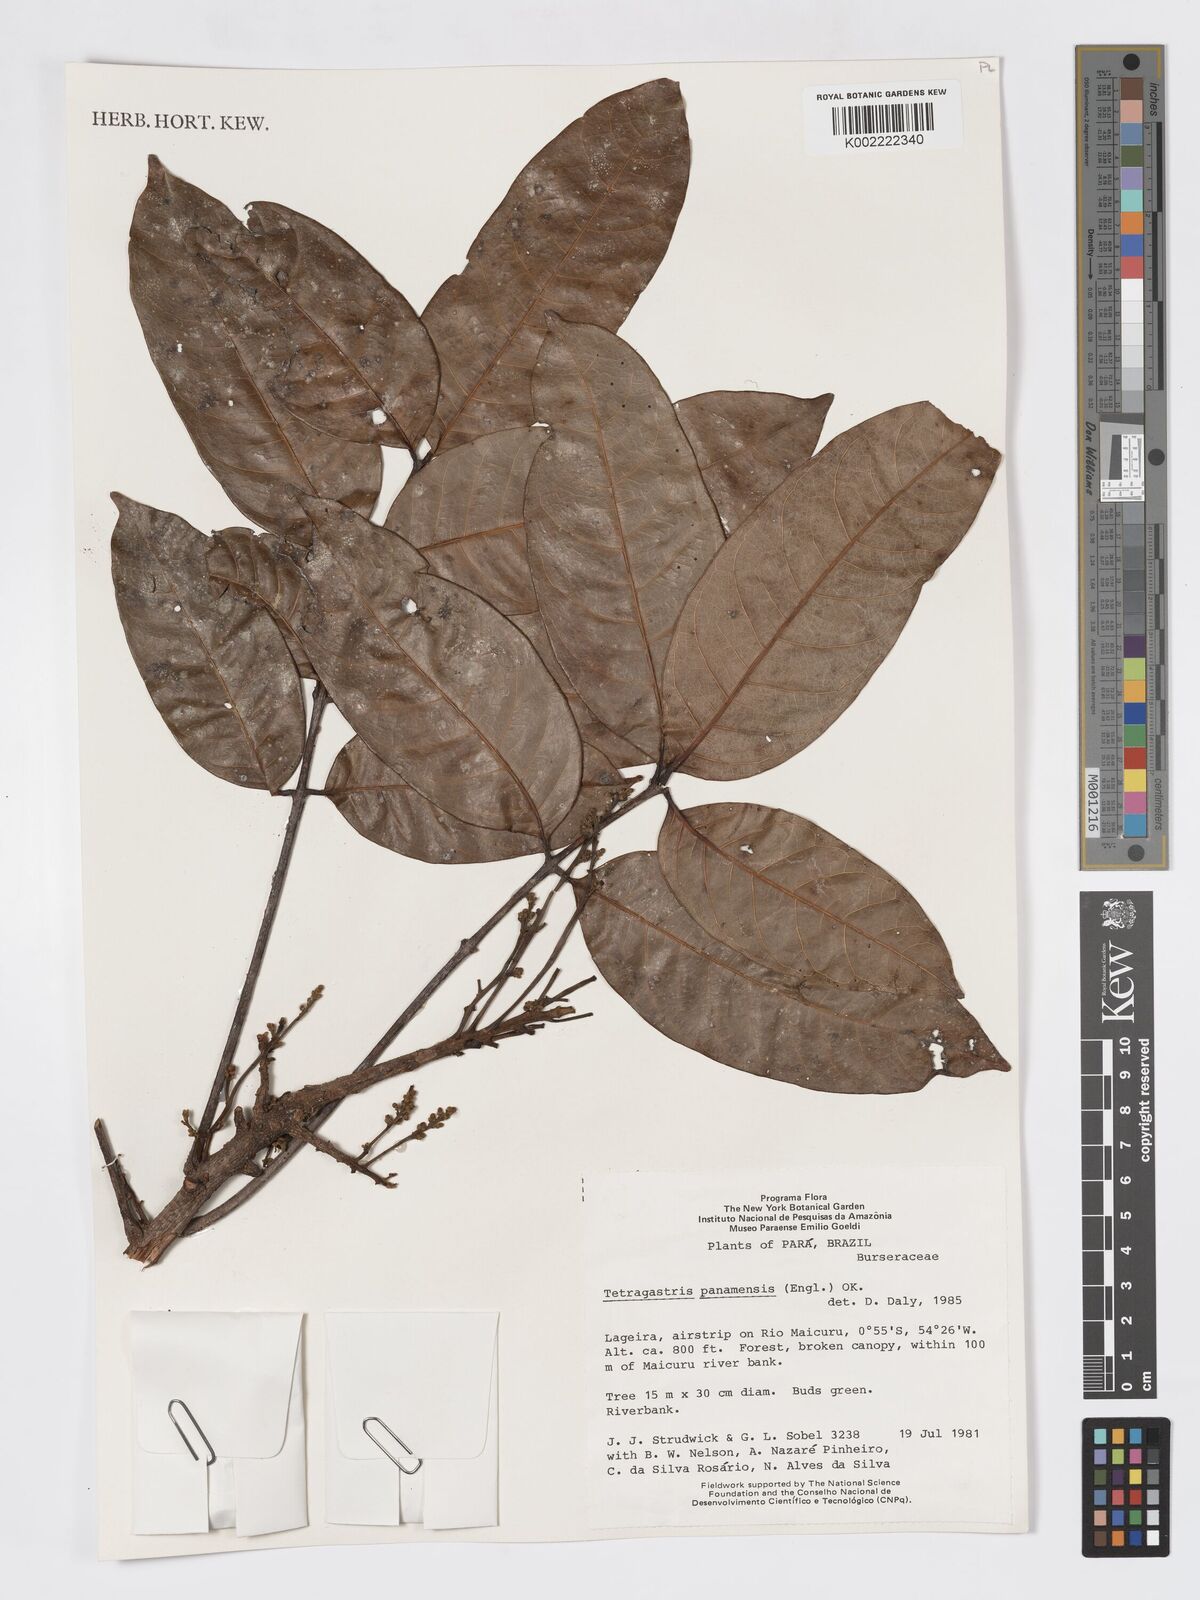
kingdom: Plantae
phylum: Tracheophyta
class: Magnoliopsida
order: Sapindales
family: Burseraceae
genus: Tetragastris
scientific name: Tetragastris panamensis
